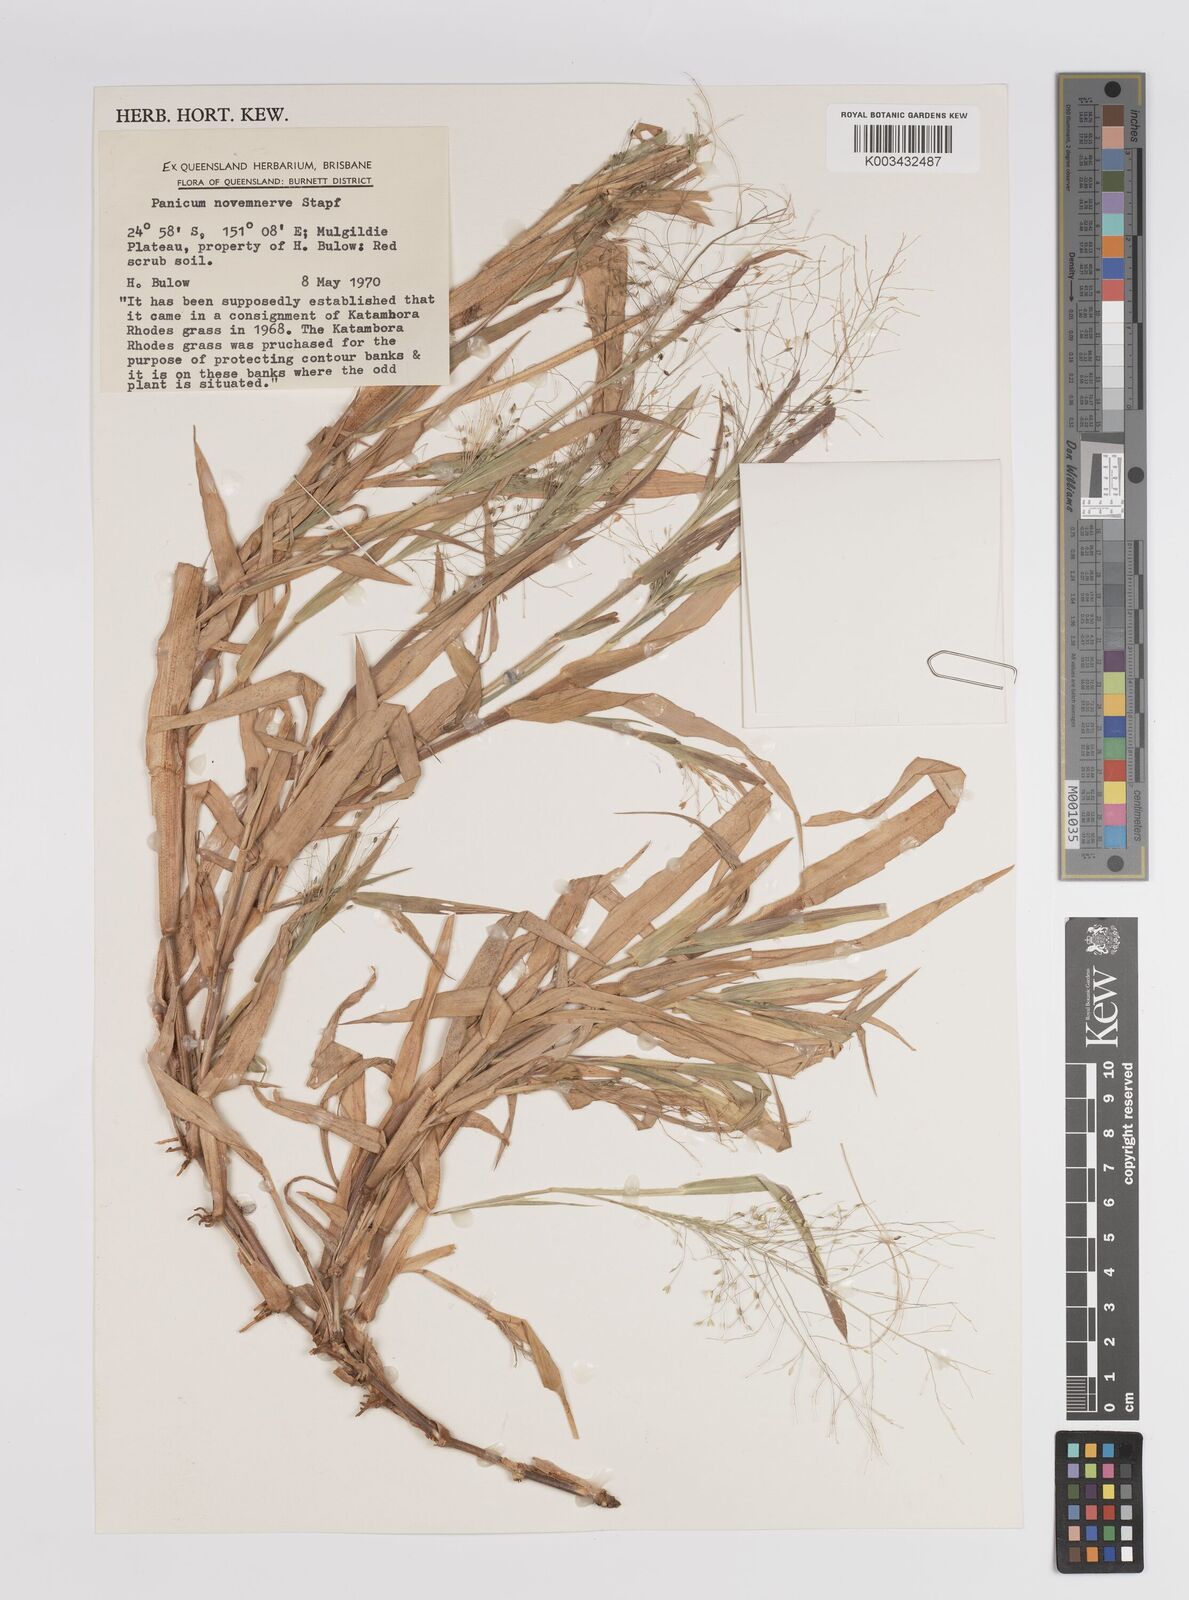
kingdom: Plantae
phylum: Tracheophyta
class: Liliopsida
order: Poales
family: Poaceae
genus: Panicum
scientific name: Panicum novemnerve
